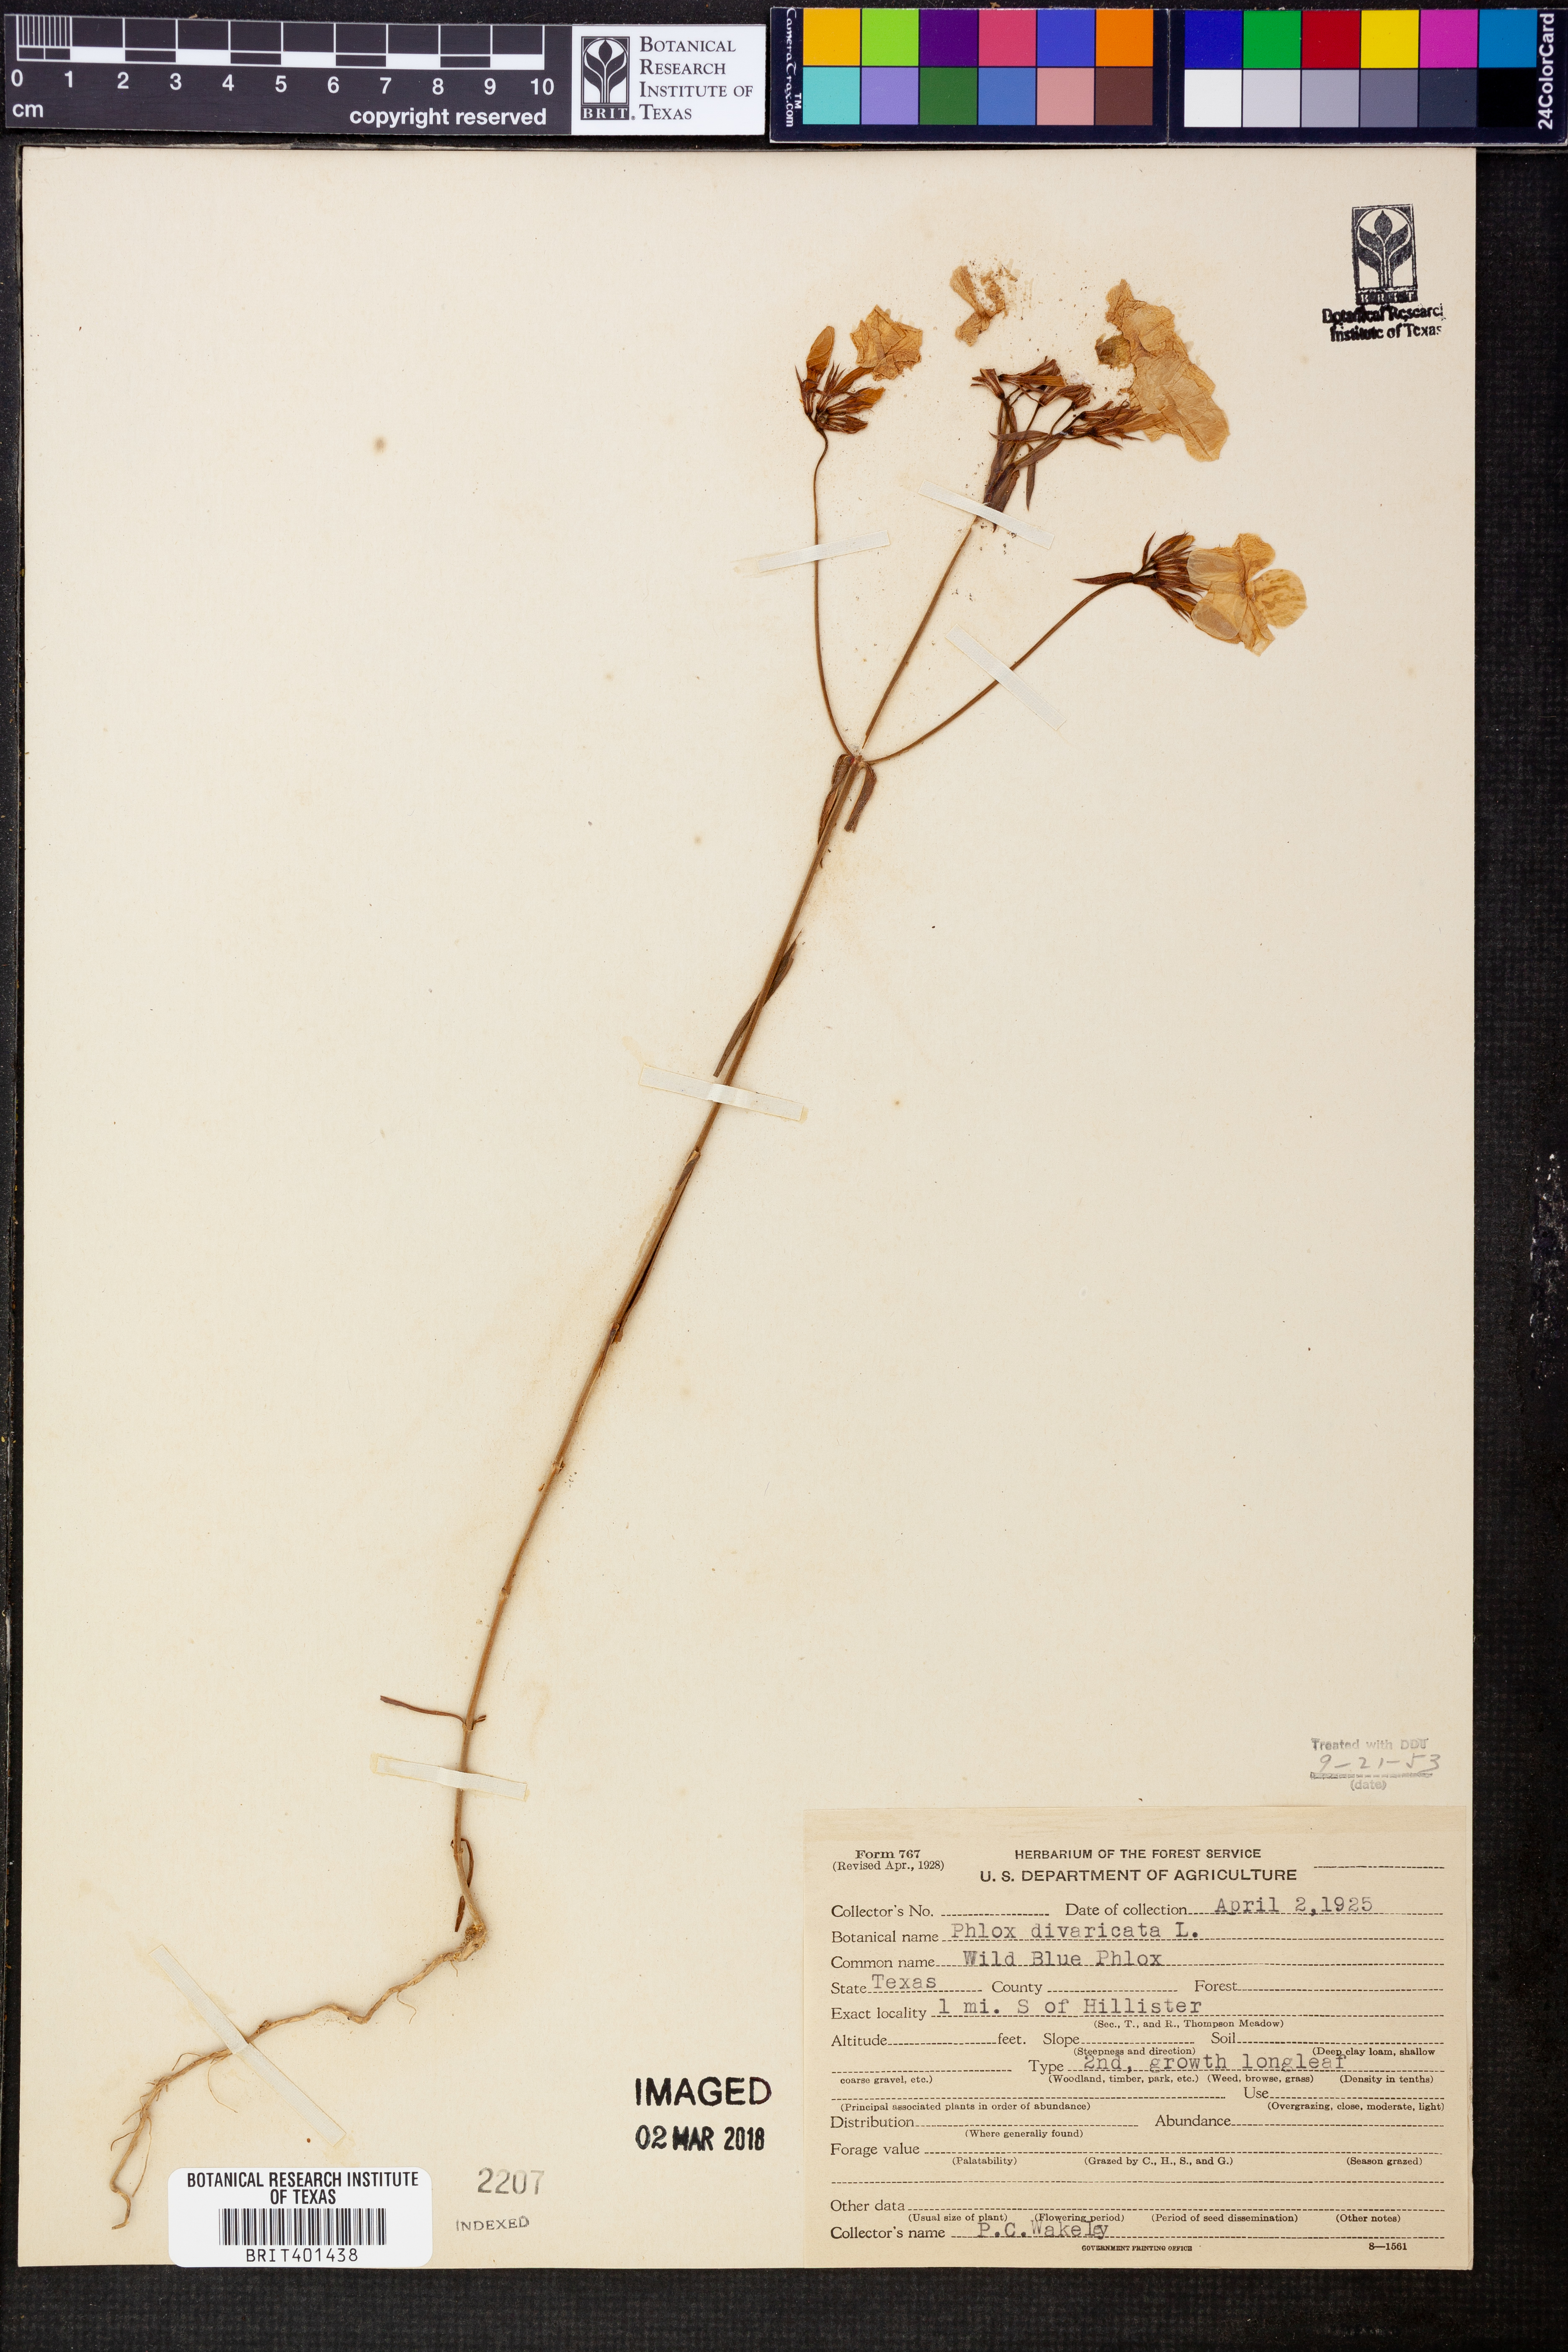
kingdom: Plantae
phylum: Tracheophyta
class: Magnoliopsida
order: Ericales
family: Polemoniaceae
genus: Phlox
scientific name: Phlox divaricata
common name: Blue phlox
